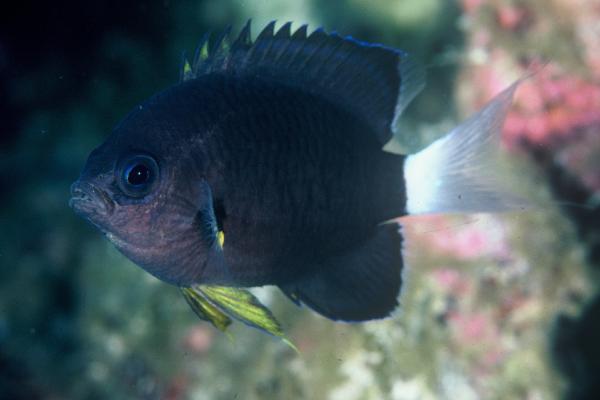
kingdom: Animalia
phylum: Chordata
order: Perciformes
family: Pomacentridae
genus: Chromis
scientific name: Chromis leucura
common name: Whitetail chromis
